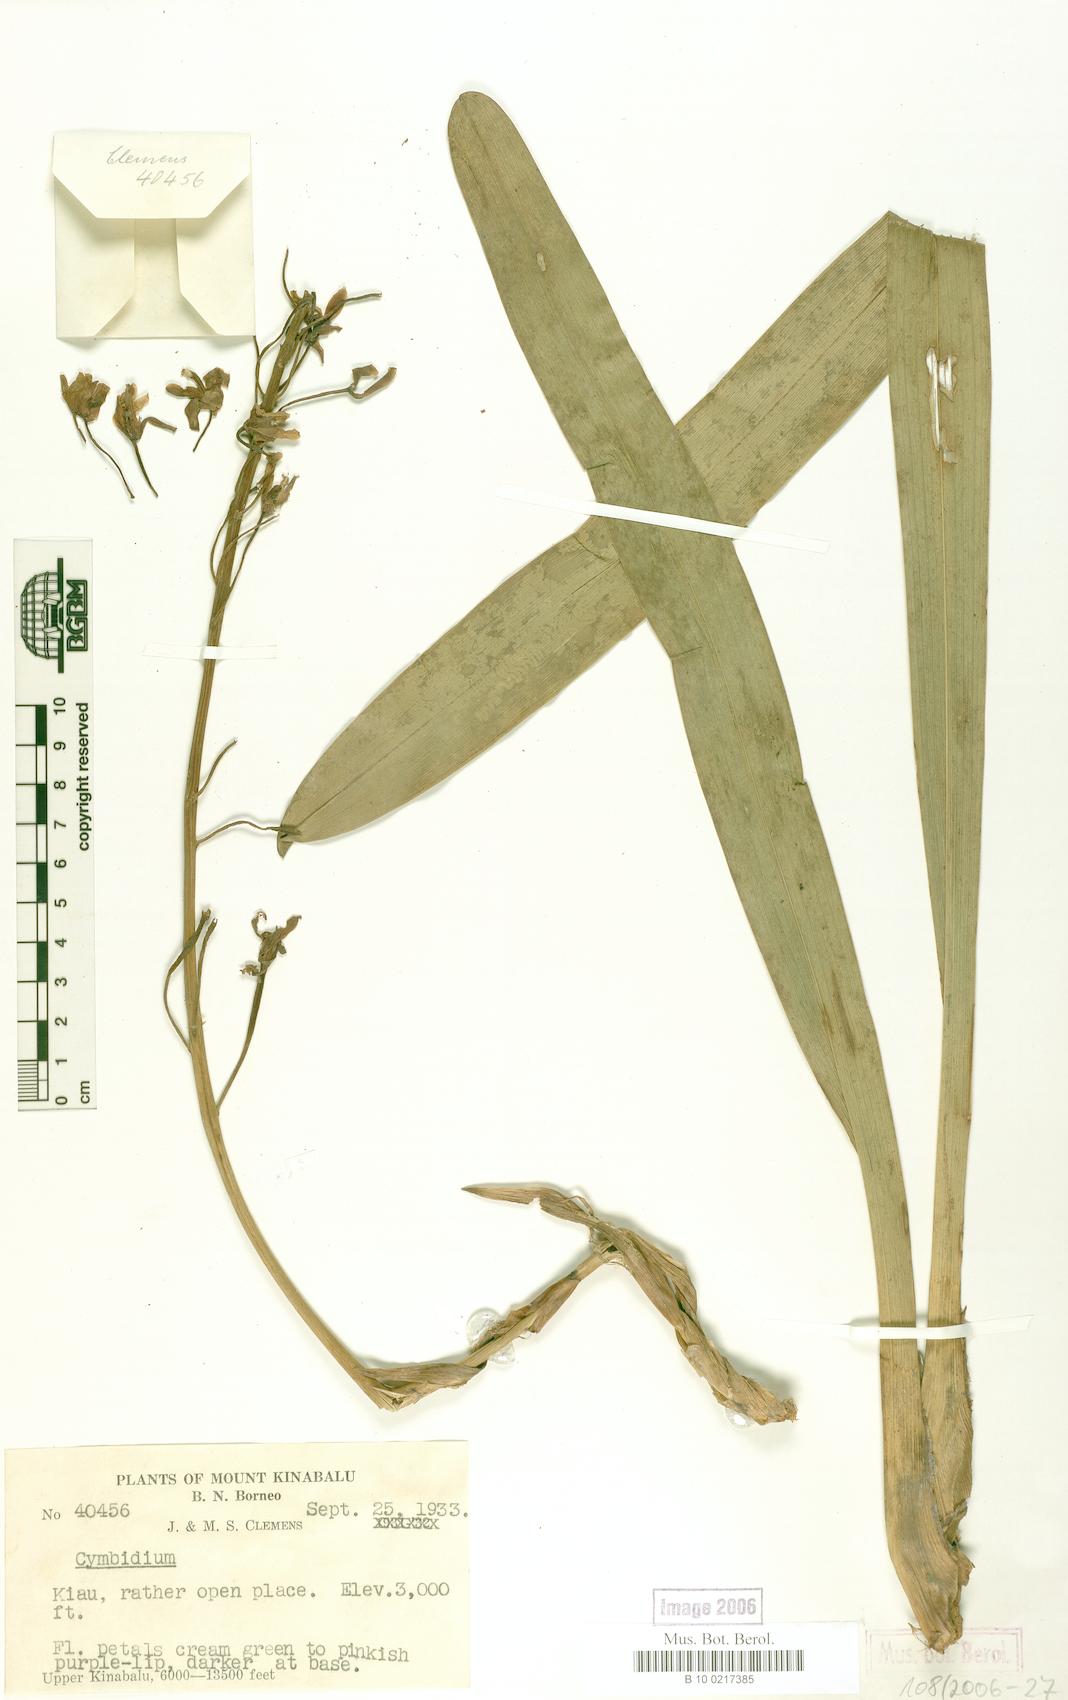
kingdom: Plantae
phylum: Tracheophyta
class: Liliopsida
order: Asparagales
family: Orchidaceae
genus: Cymbidium
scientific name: Cymbidium
